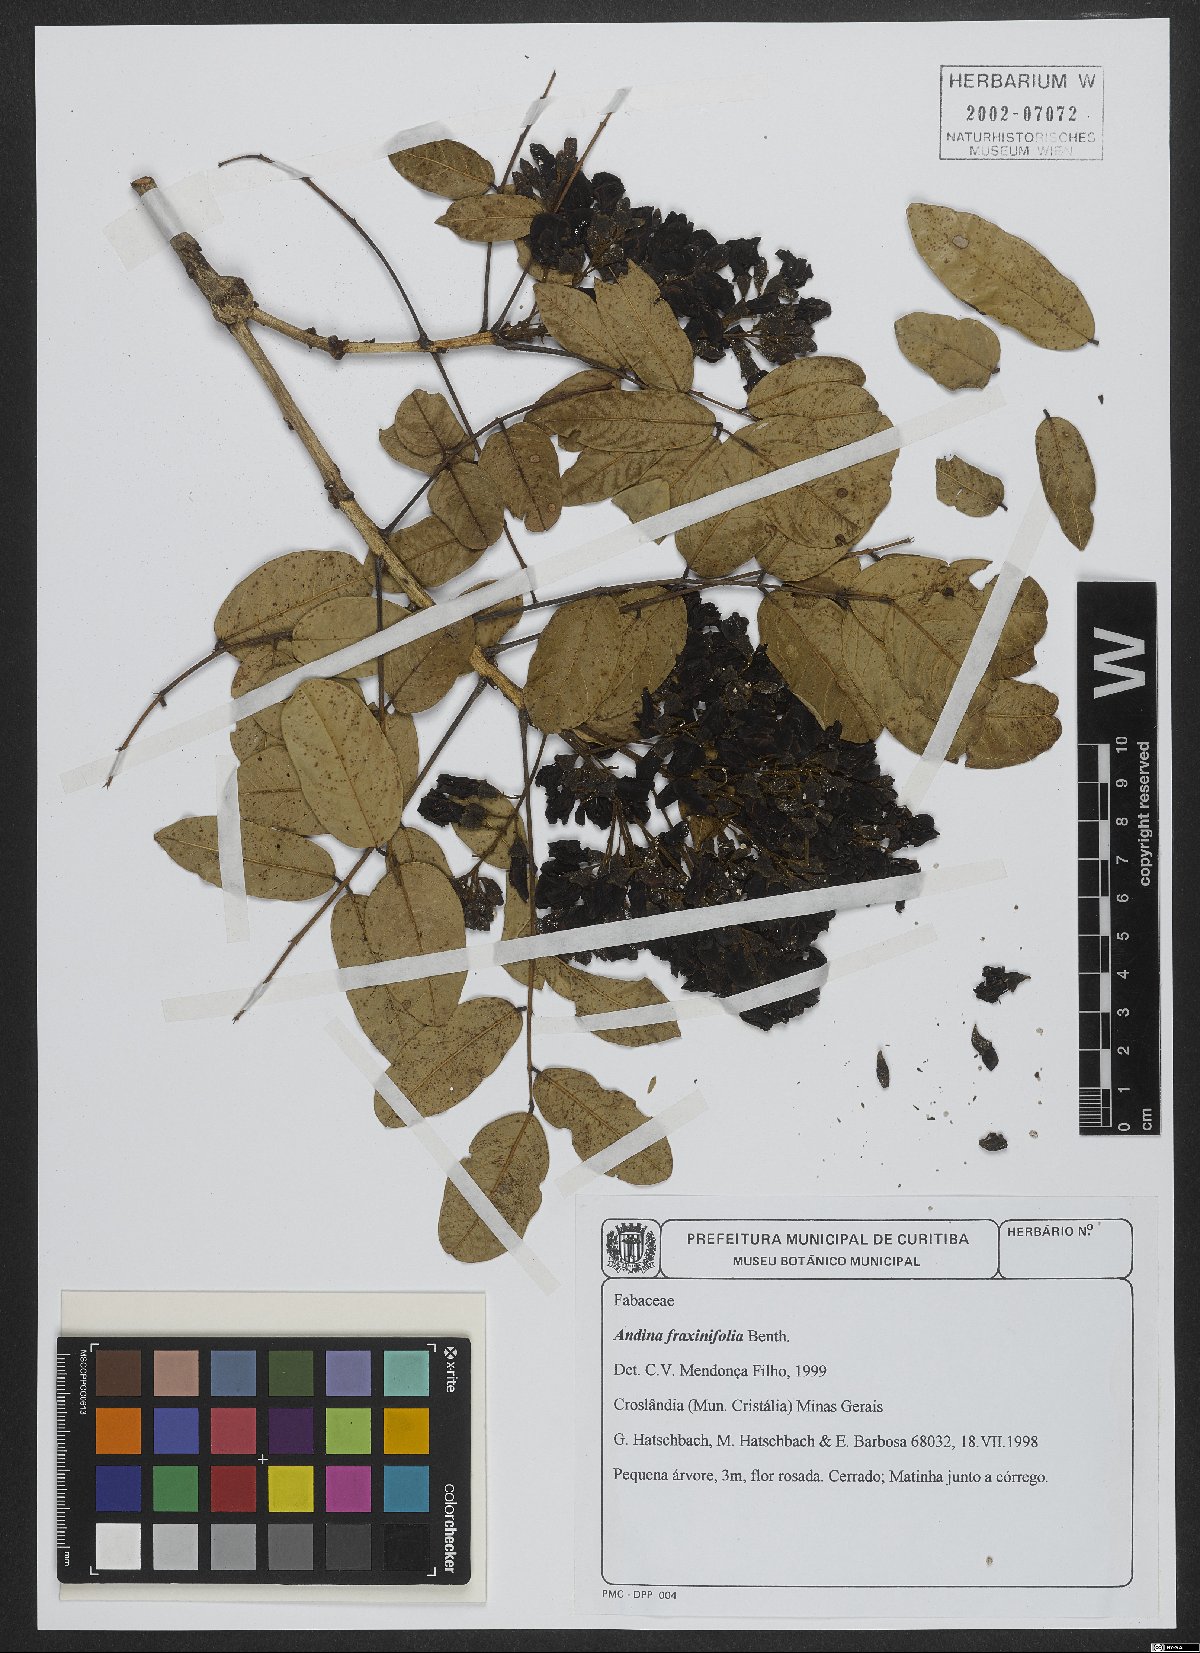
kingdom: Plantae
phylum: Tracheophyta
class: Magnoliopsida
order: Fabales
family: Fabaceae
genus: Andira
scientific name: Andira fraxinifolia
